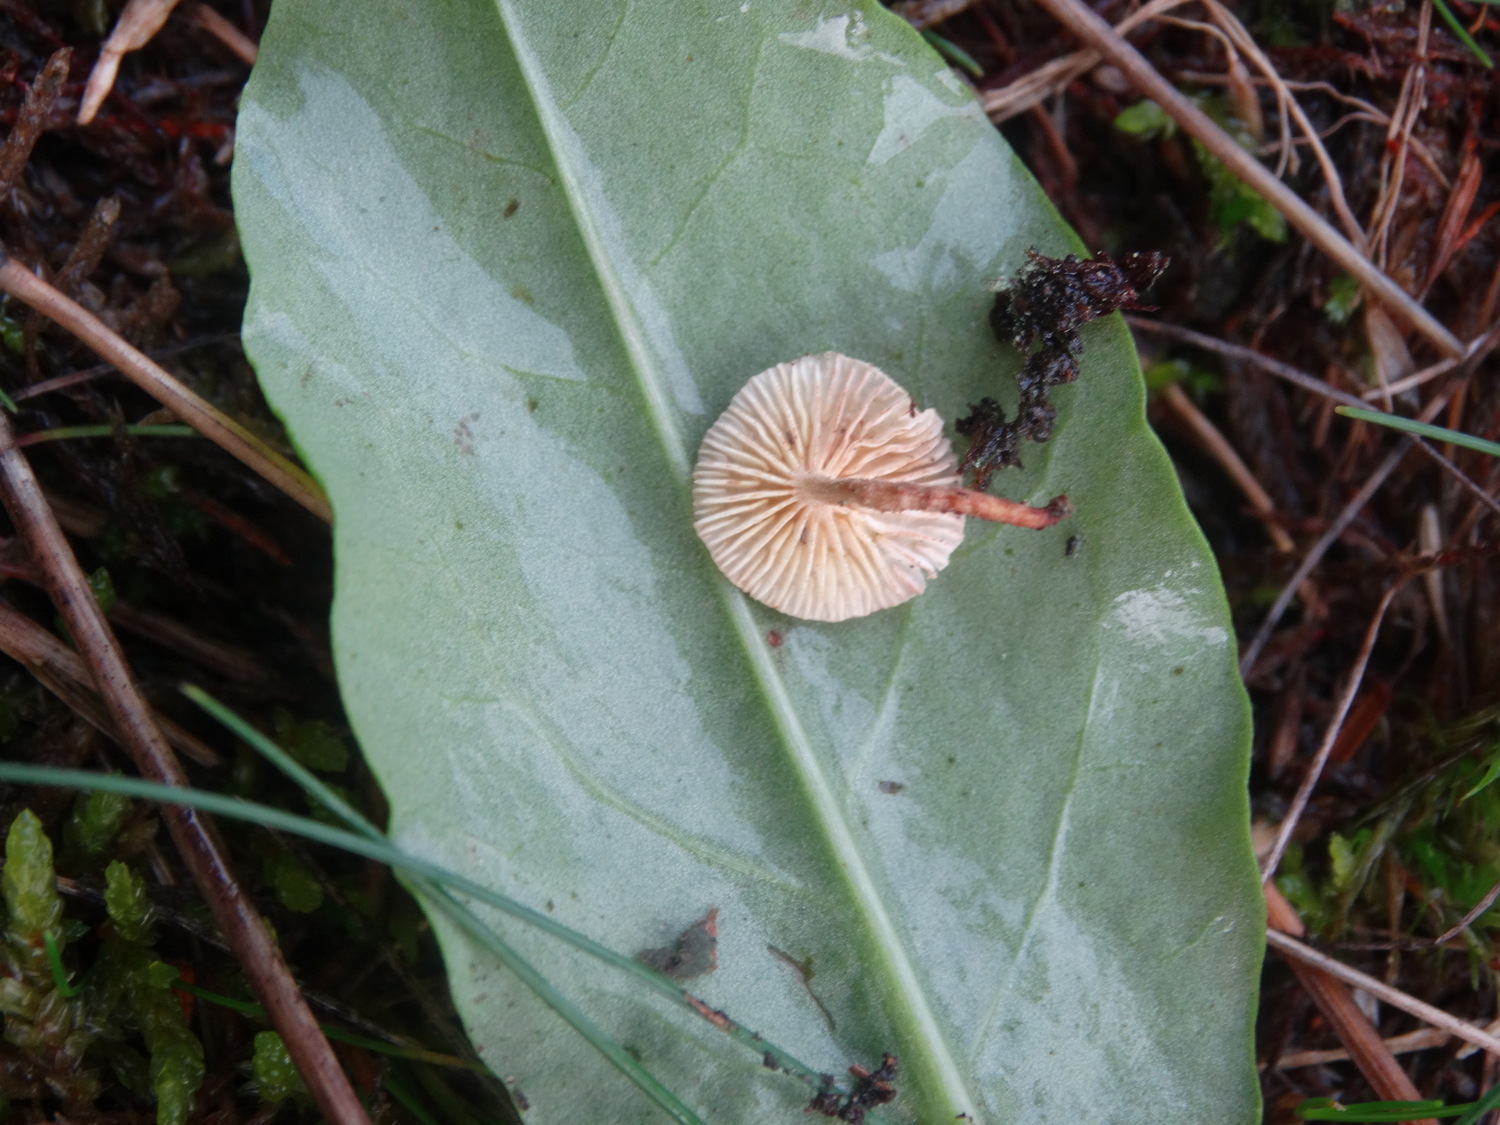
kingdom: Fungi
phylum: Basidiomycota
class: Agaricomycetes
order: Agaricales
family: Omphalotaceae
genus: Collybiopsis
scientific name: Collybiopsis ramealis
